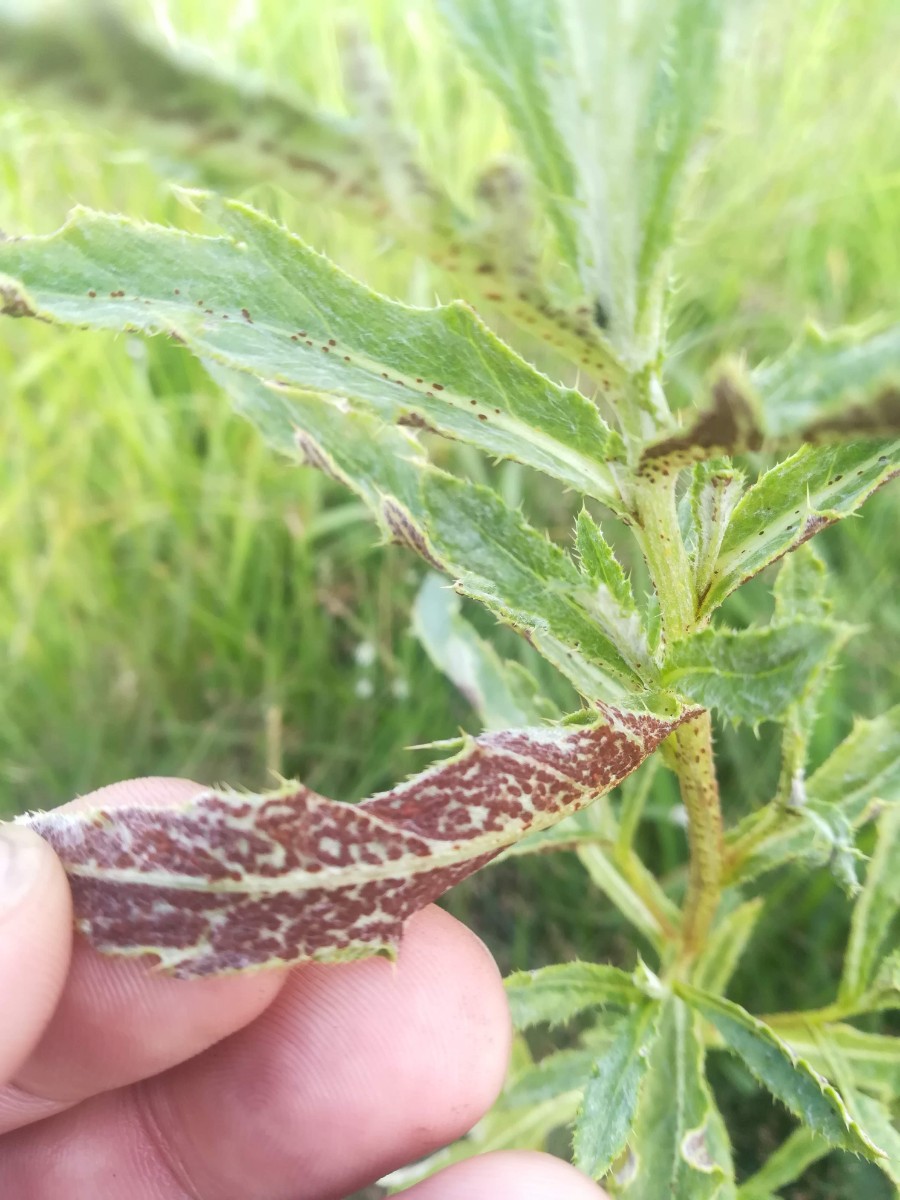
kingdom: Fungi
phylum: Basidiomycota
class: Pucciniomycetes
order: Pucciniales
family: Pucciniaceae
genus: Puccinia
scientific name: Puccinia suaveolens
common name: tidsel-tvecellerust
